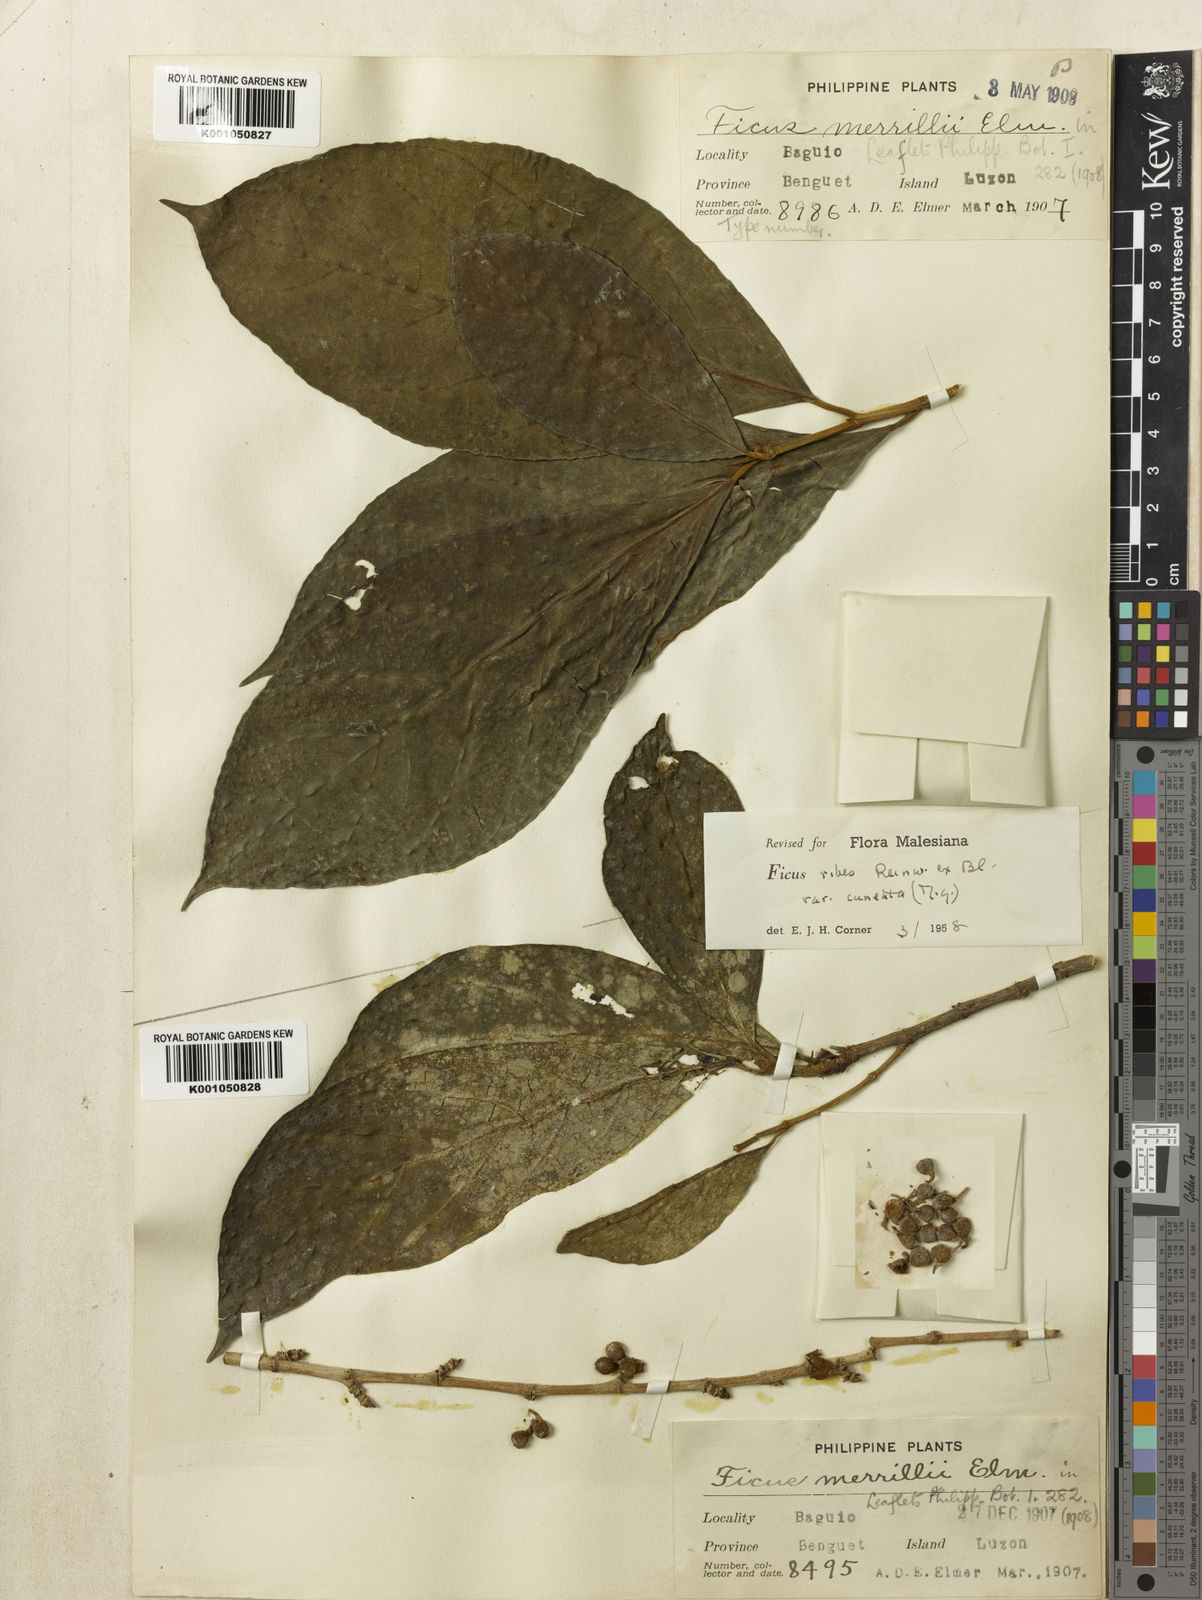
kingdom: Plantae
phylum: Tracheophyta
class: Magnoliopsida
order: Rosales
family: Moraceae
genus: Ficus
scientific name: Ficus
